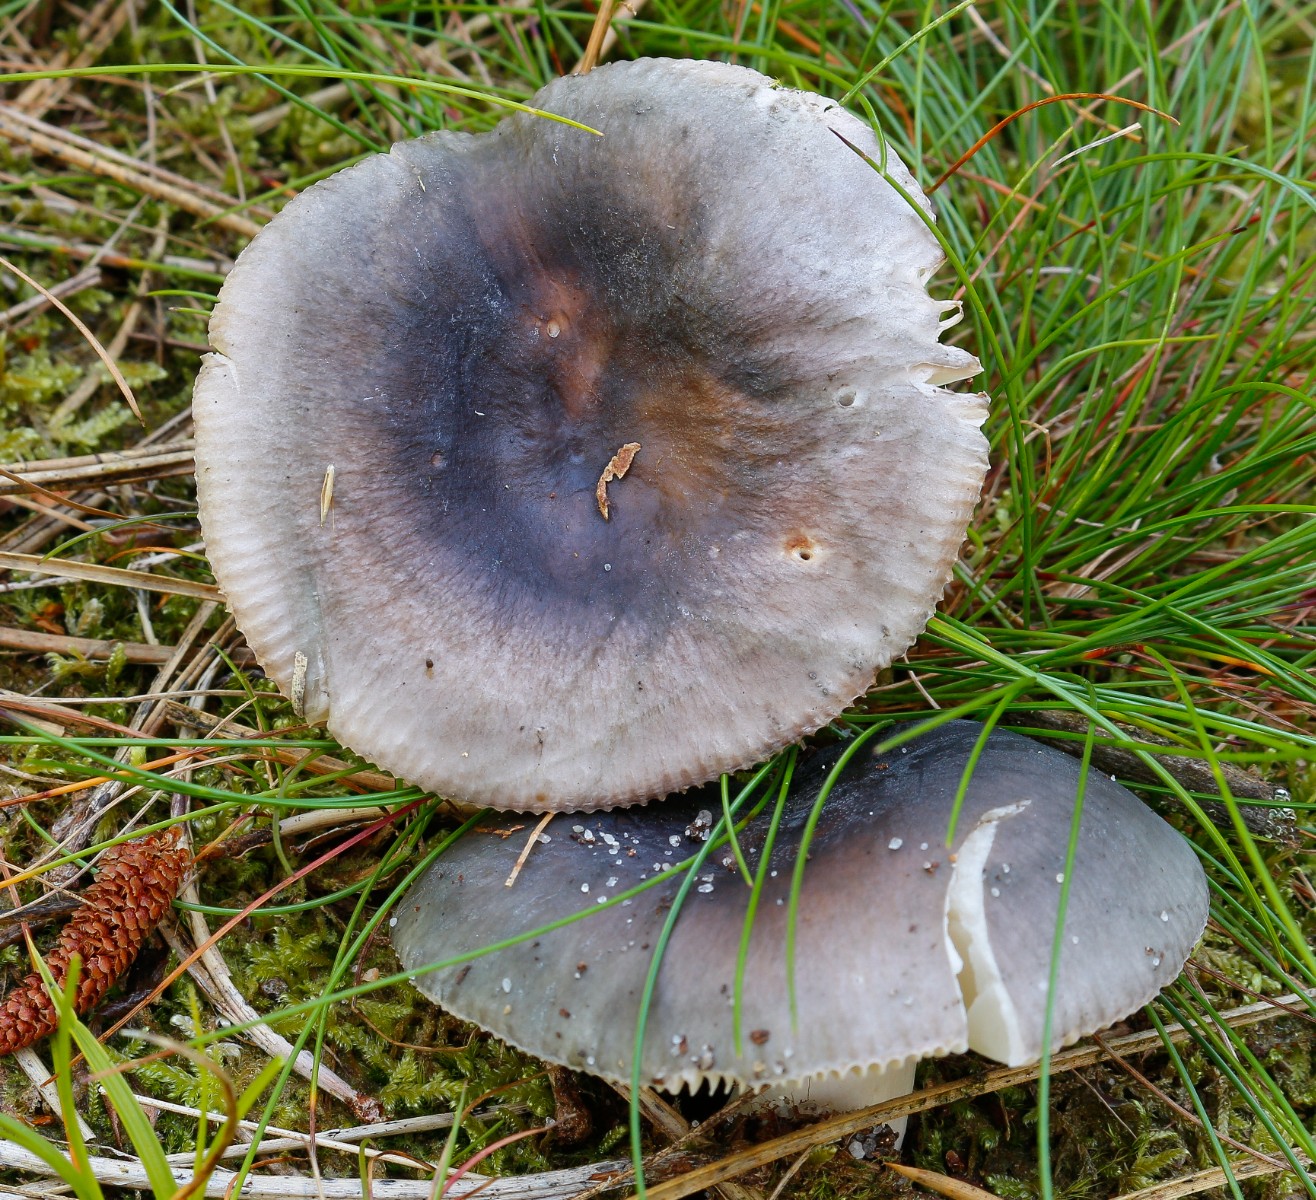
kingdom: Fungi
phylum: Basidiomycota
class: Agaricomycetes
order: Russulales
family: Russulaceae
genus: Russula
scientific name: Russula
